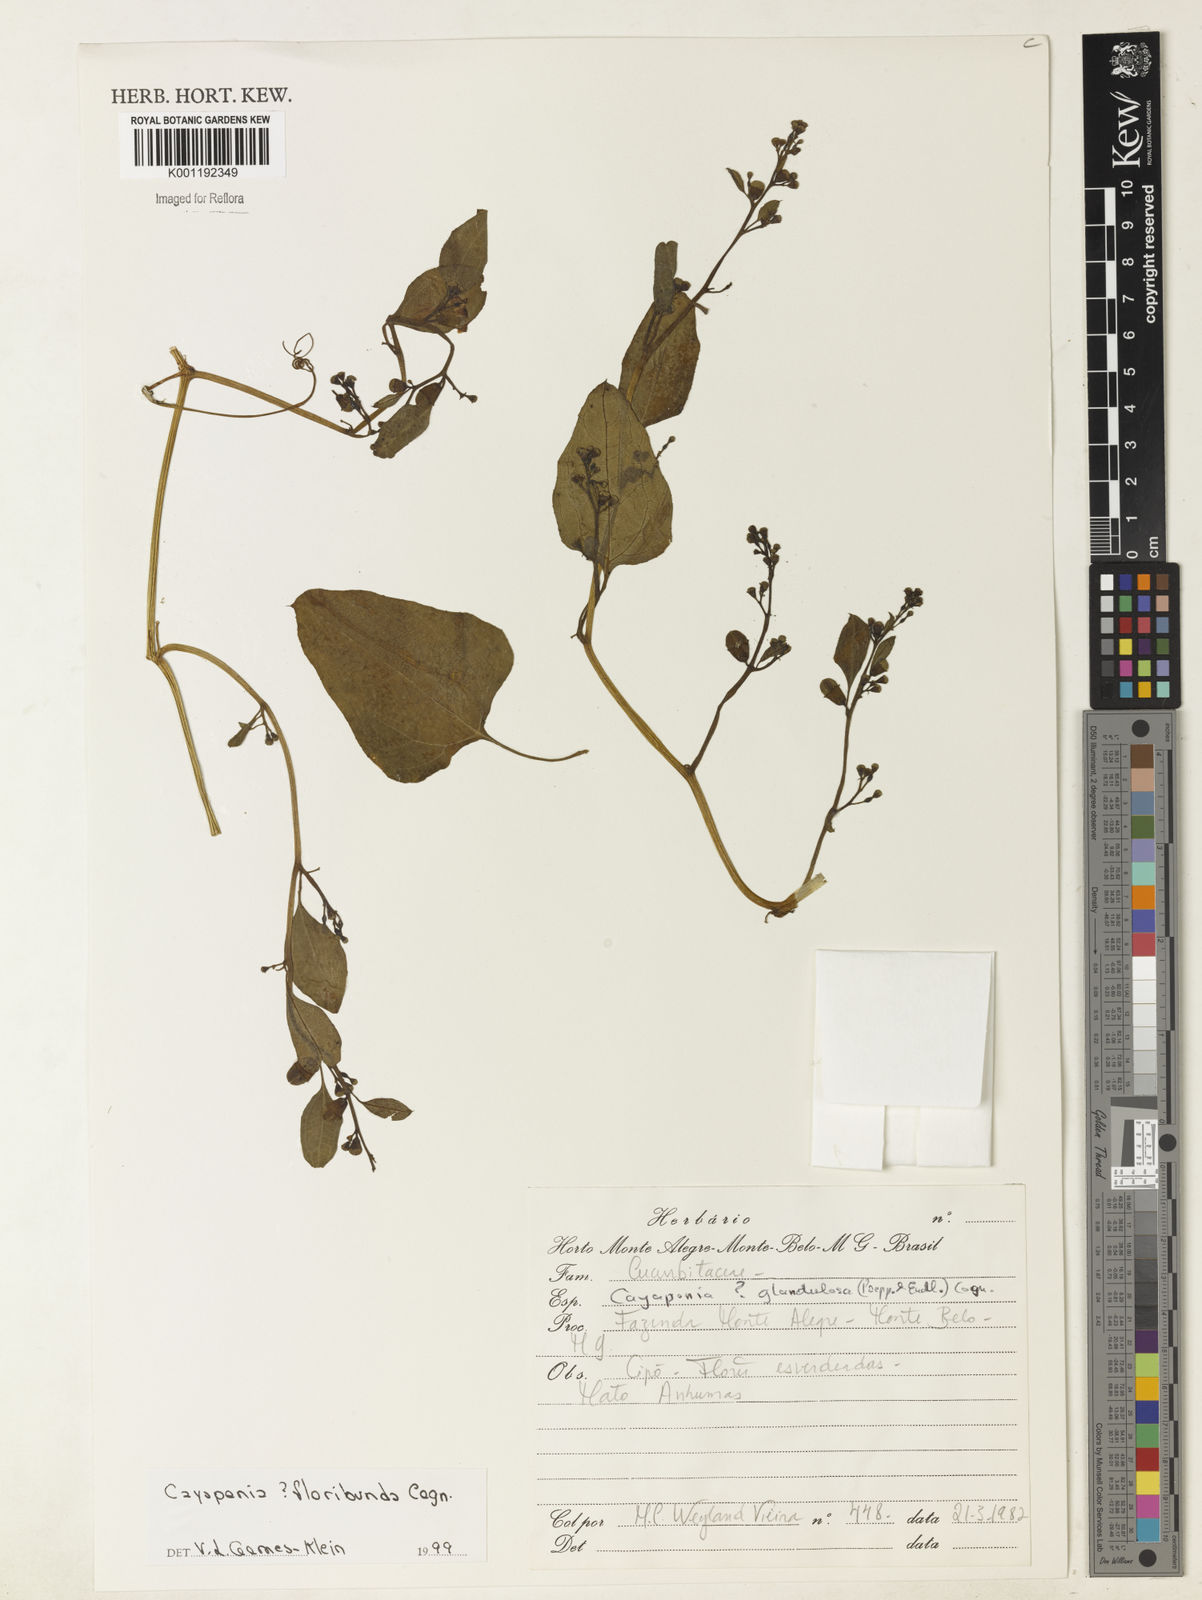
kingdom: Plantae
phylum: Tracheophyta
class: Magnoliopsida
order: Cucurbitales
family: Cucurbitaceae
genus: Cayaponia
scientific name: Cayaponia glandulosa
